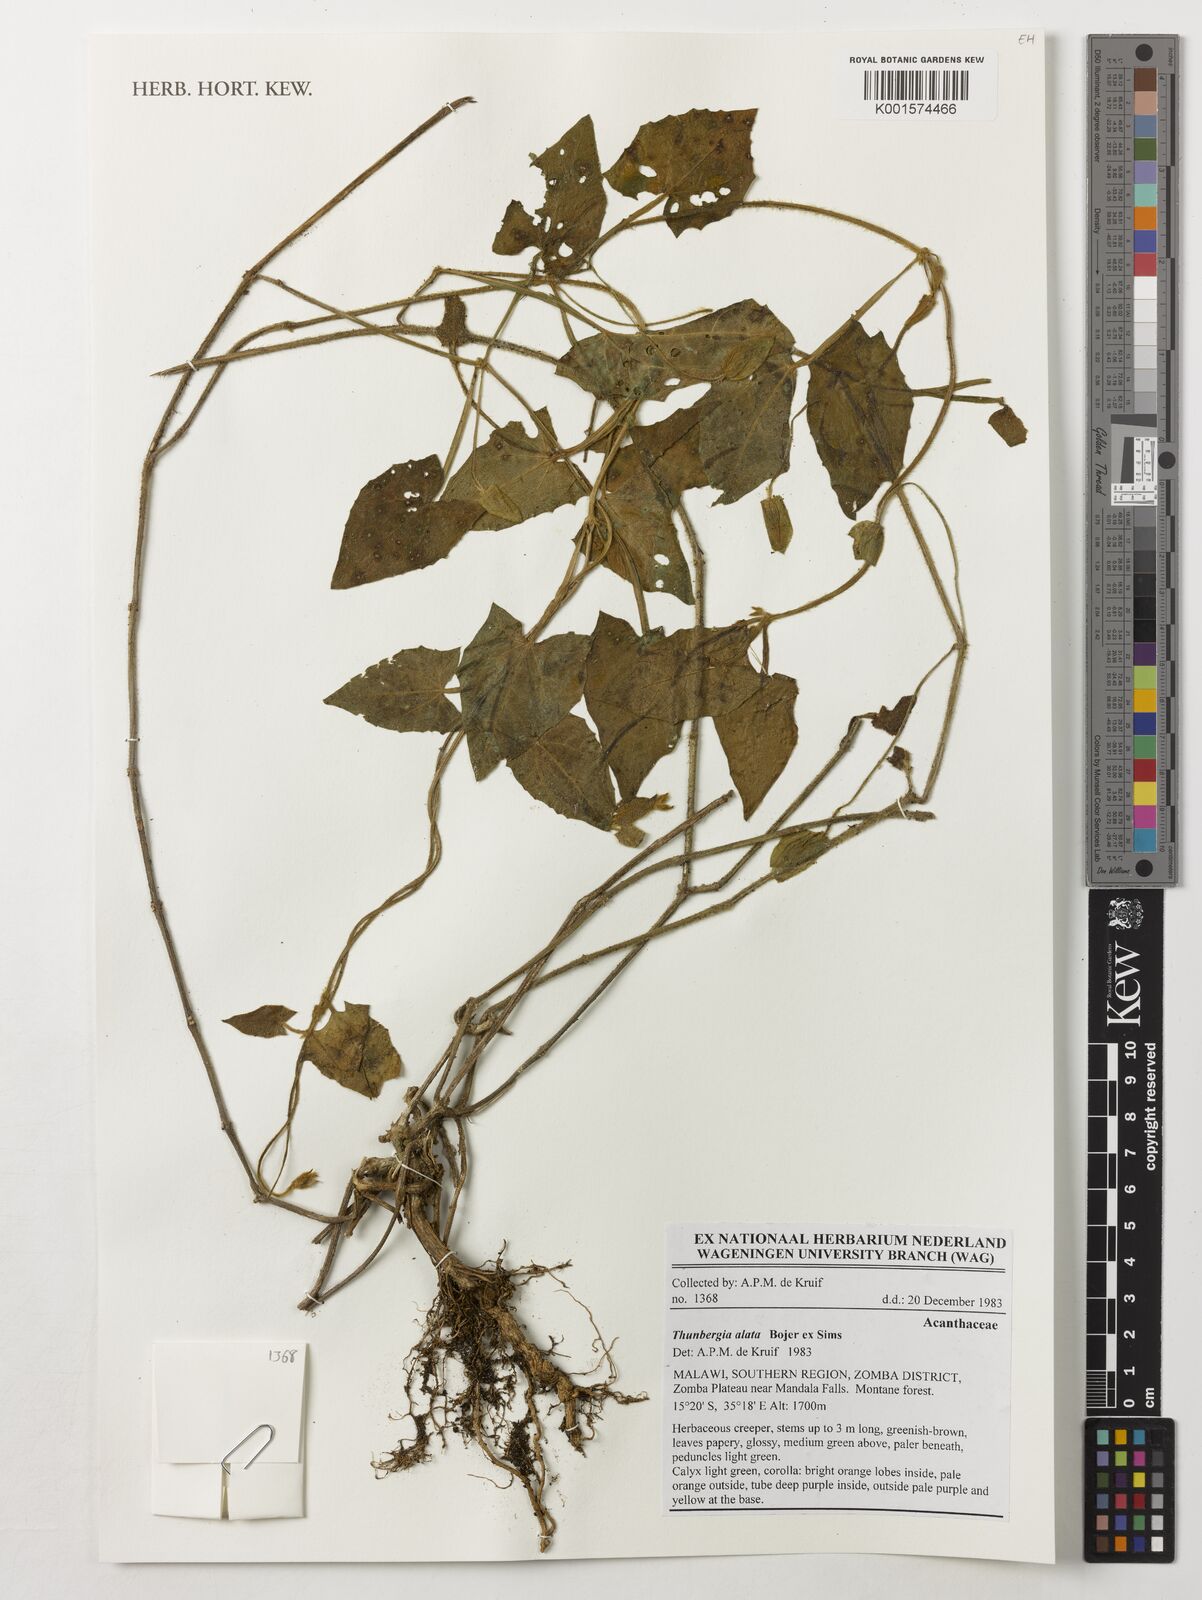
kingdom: Plantae
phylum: Tracheophyta
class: Magnoliopsida
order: Lamiales
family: Acanthaceae
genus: Thunbergia
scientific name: Thunbergia alata
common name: Blackeyed susan vine
